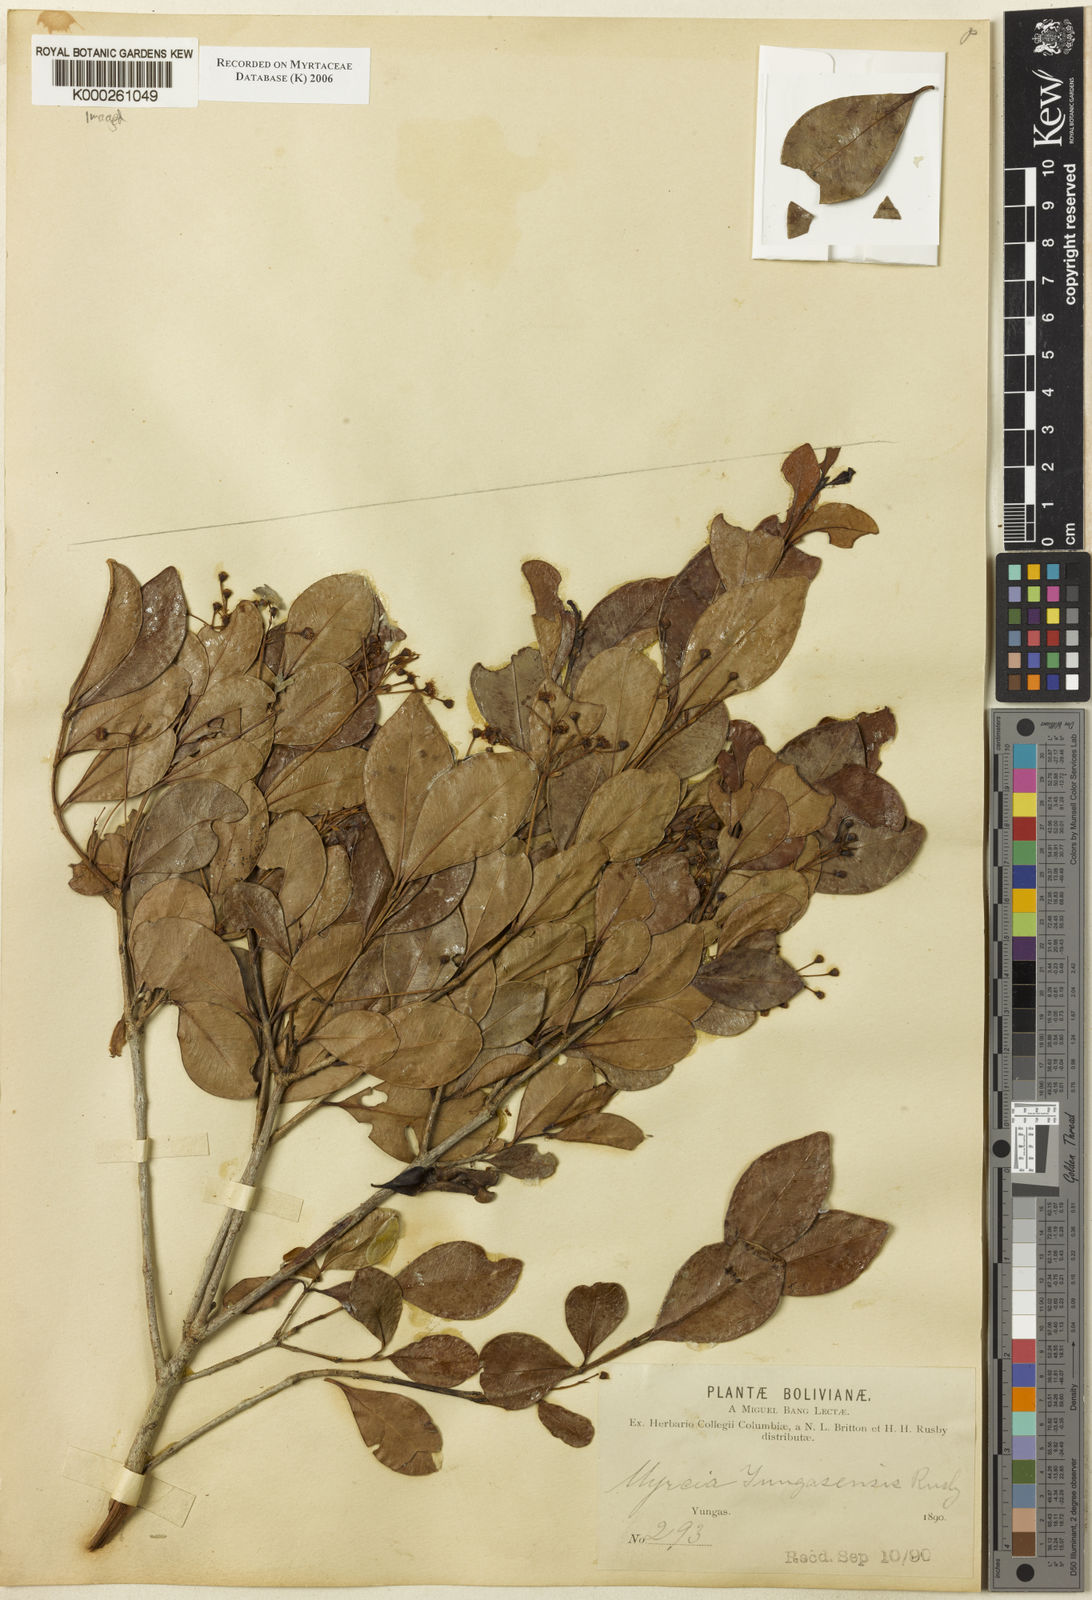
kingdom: Plantae
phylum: Tracheophyta
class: Magnoliopsida
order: Myrtales
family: Myrtaceae
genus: Myrcia
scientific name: Myrcia guianensis
